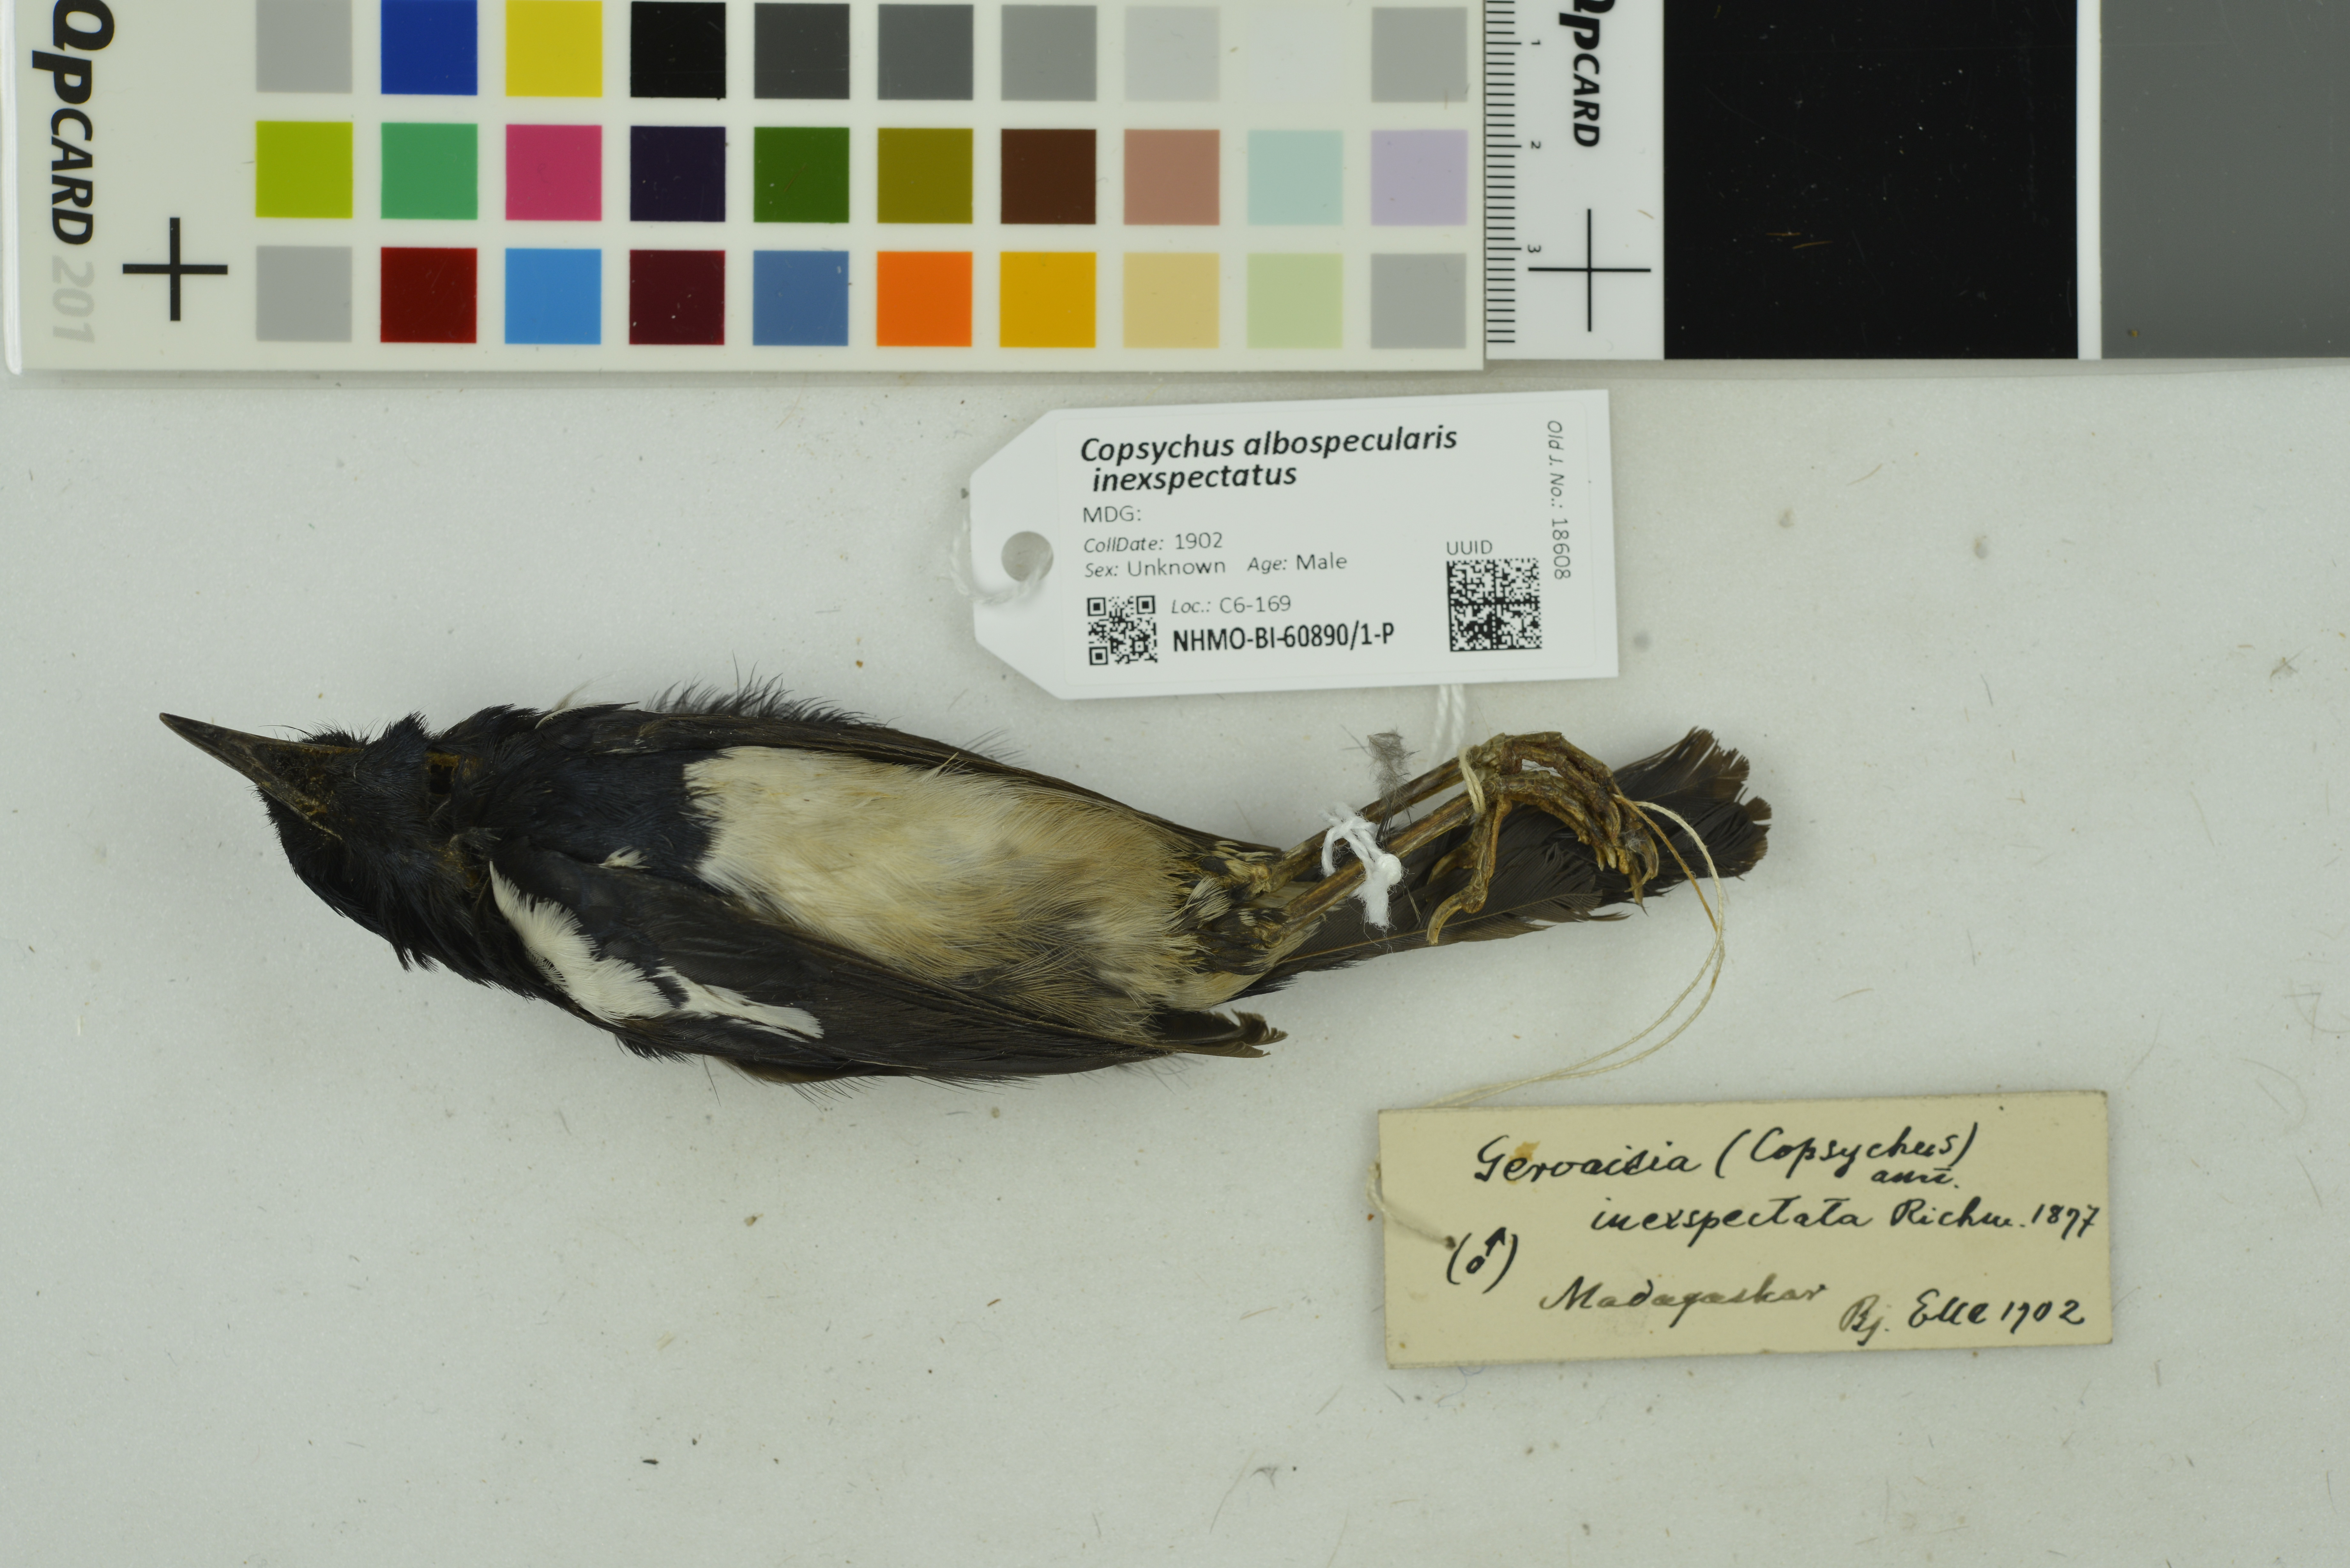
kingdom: Animalia
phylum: Chordata
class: Aves
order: Passeriformes
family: Muscicapidae
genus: Copsychus
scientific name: Copsychus albospecularis
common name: Madagascar magpie-robin
